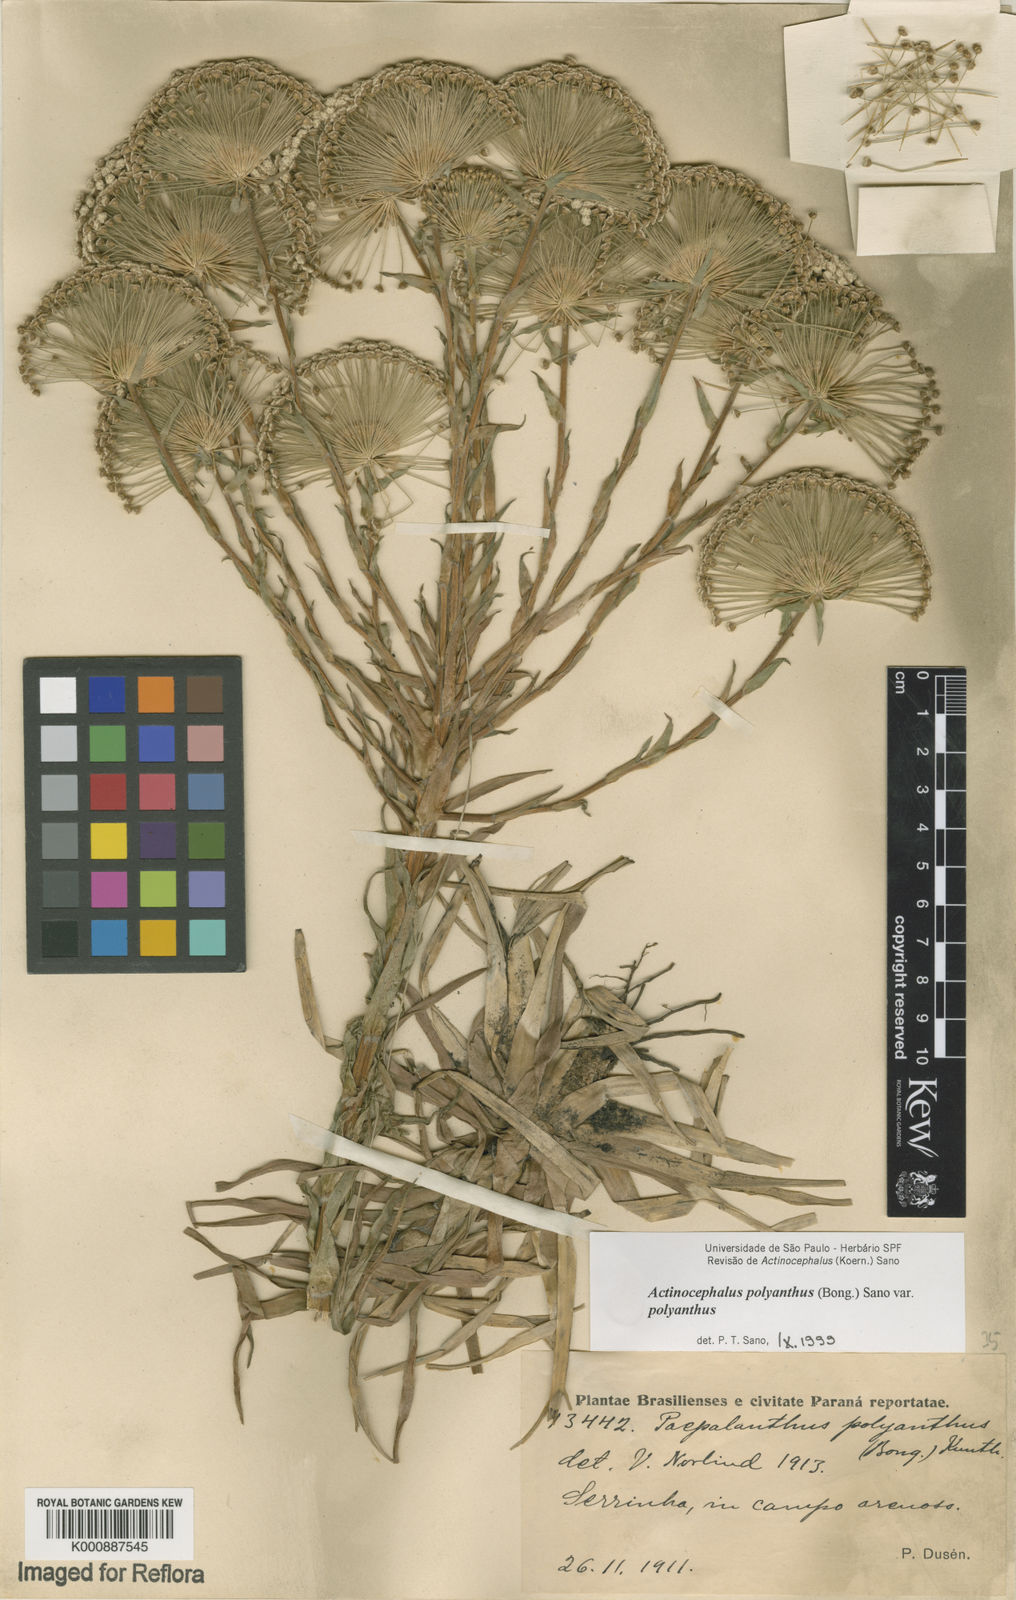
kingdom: Plantae
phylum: Tracheophyta
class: Liliopsida
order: Poales
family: Eriocaulaceae
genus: Paepalanthus
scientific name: Paepalanthus polyanthus
